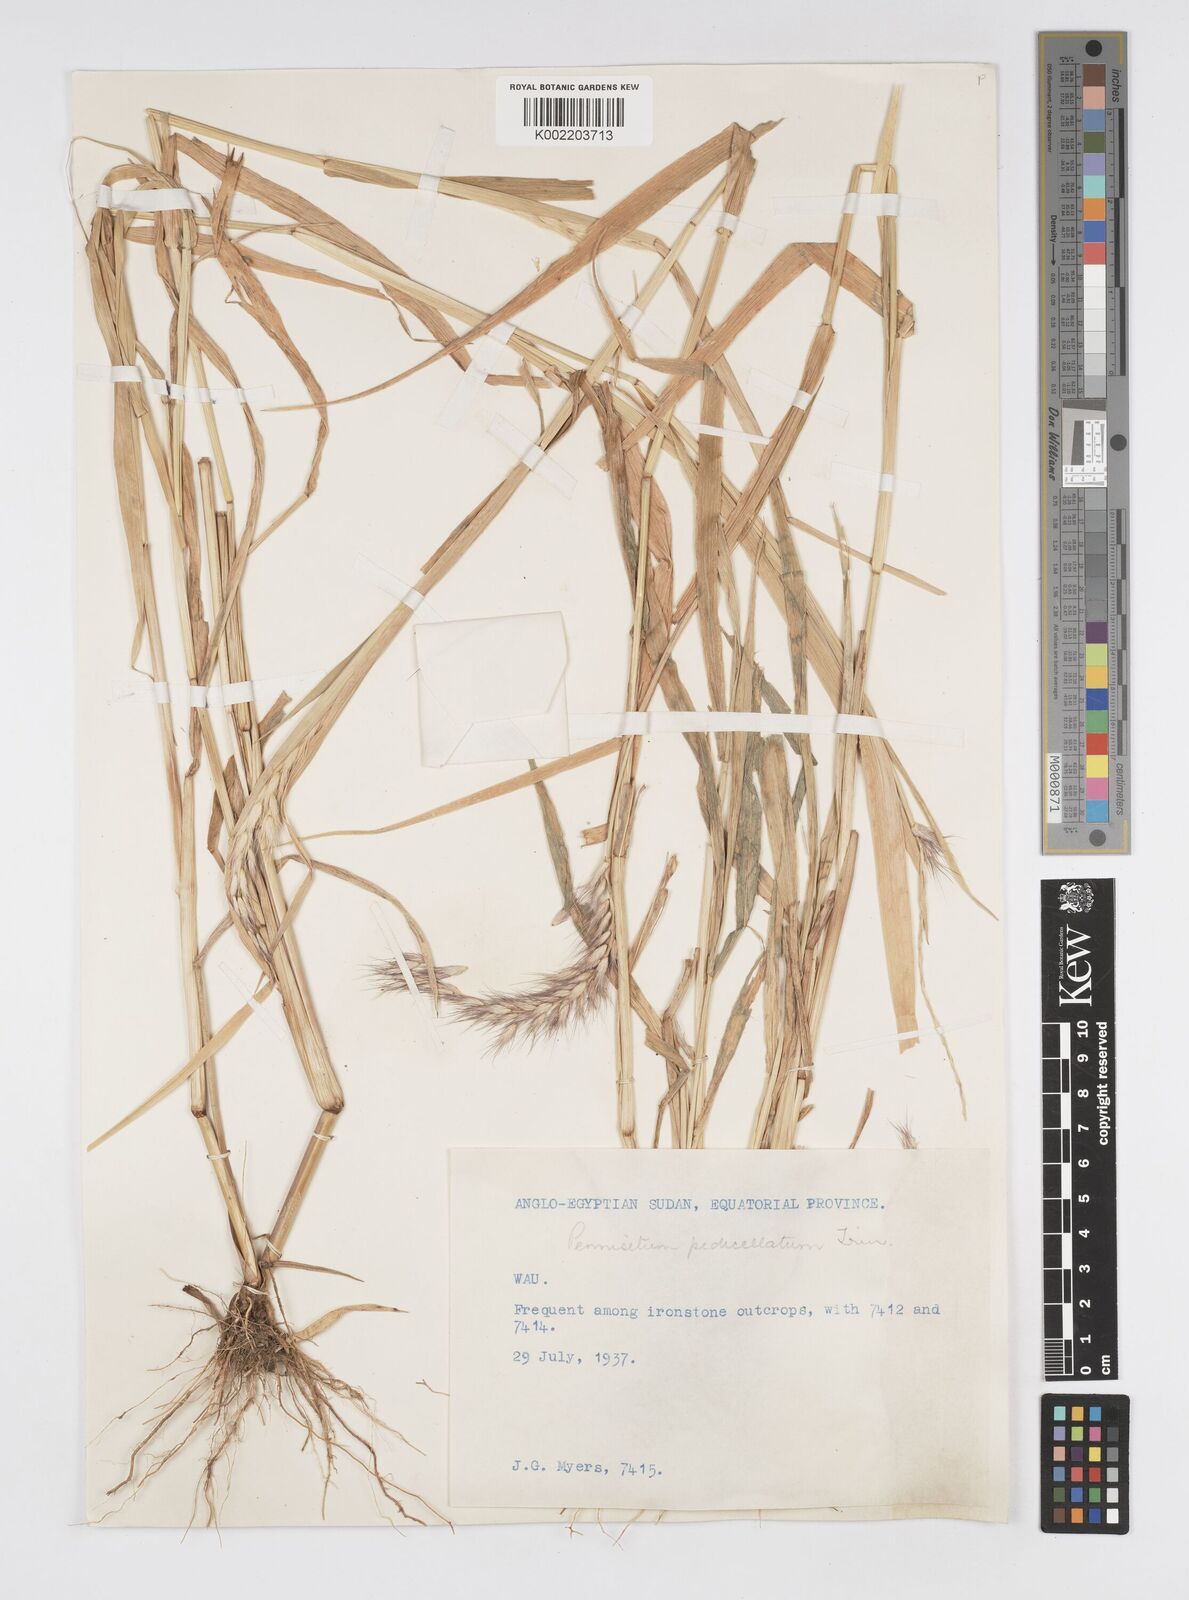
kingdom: Plantae
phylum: Tracheophyta
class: Liliopsida
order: Poales
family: Poaceae
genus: Cenchrus
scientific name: Cenchrus pedicellatus
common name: Hairy fountain grass
